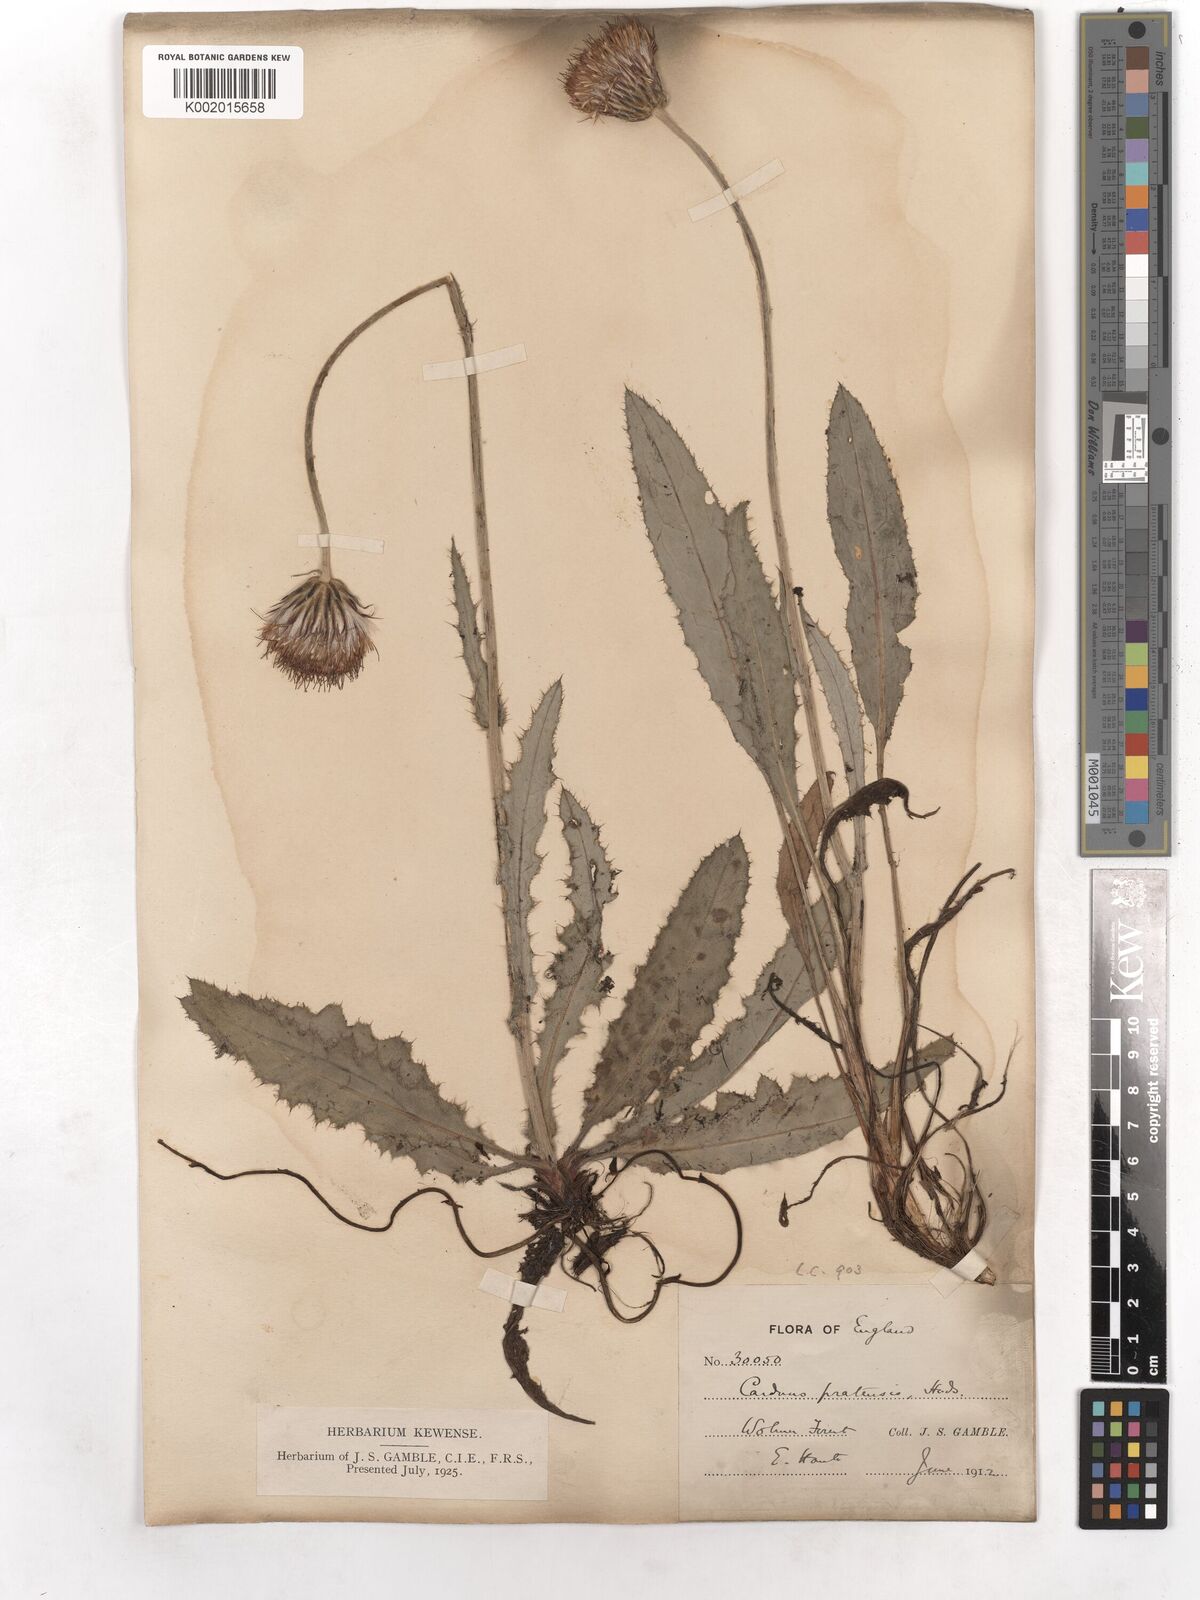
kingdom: Plantae
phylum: Tracheophyta
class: Magnoliopsida
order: Asterales
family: Asteraceae
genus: Cirsium
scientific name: Cirsium dissectum
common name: Meadow thistle
